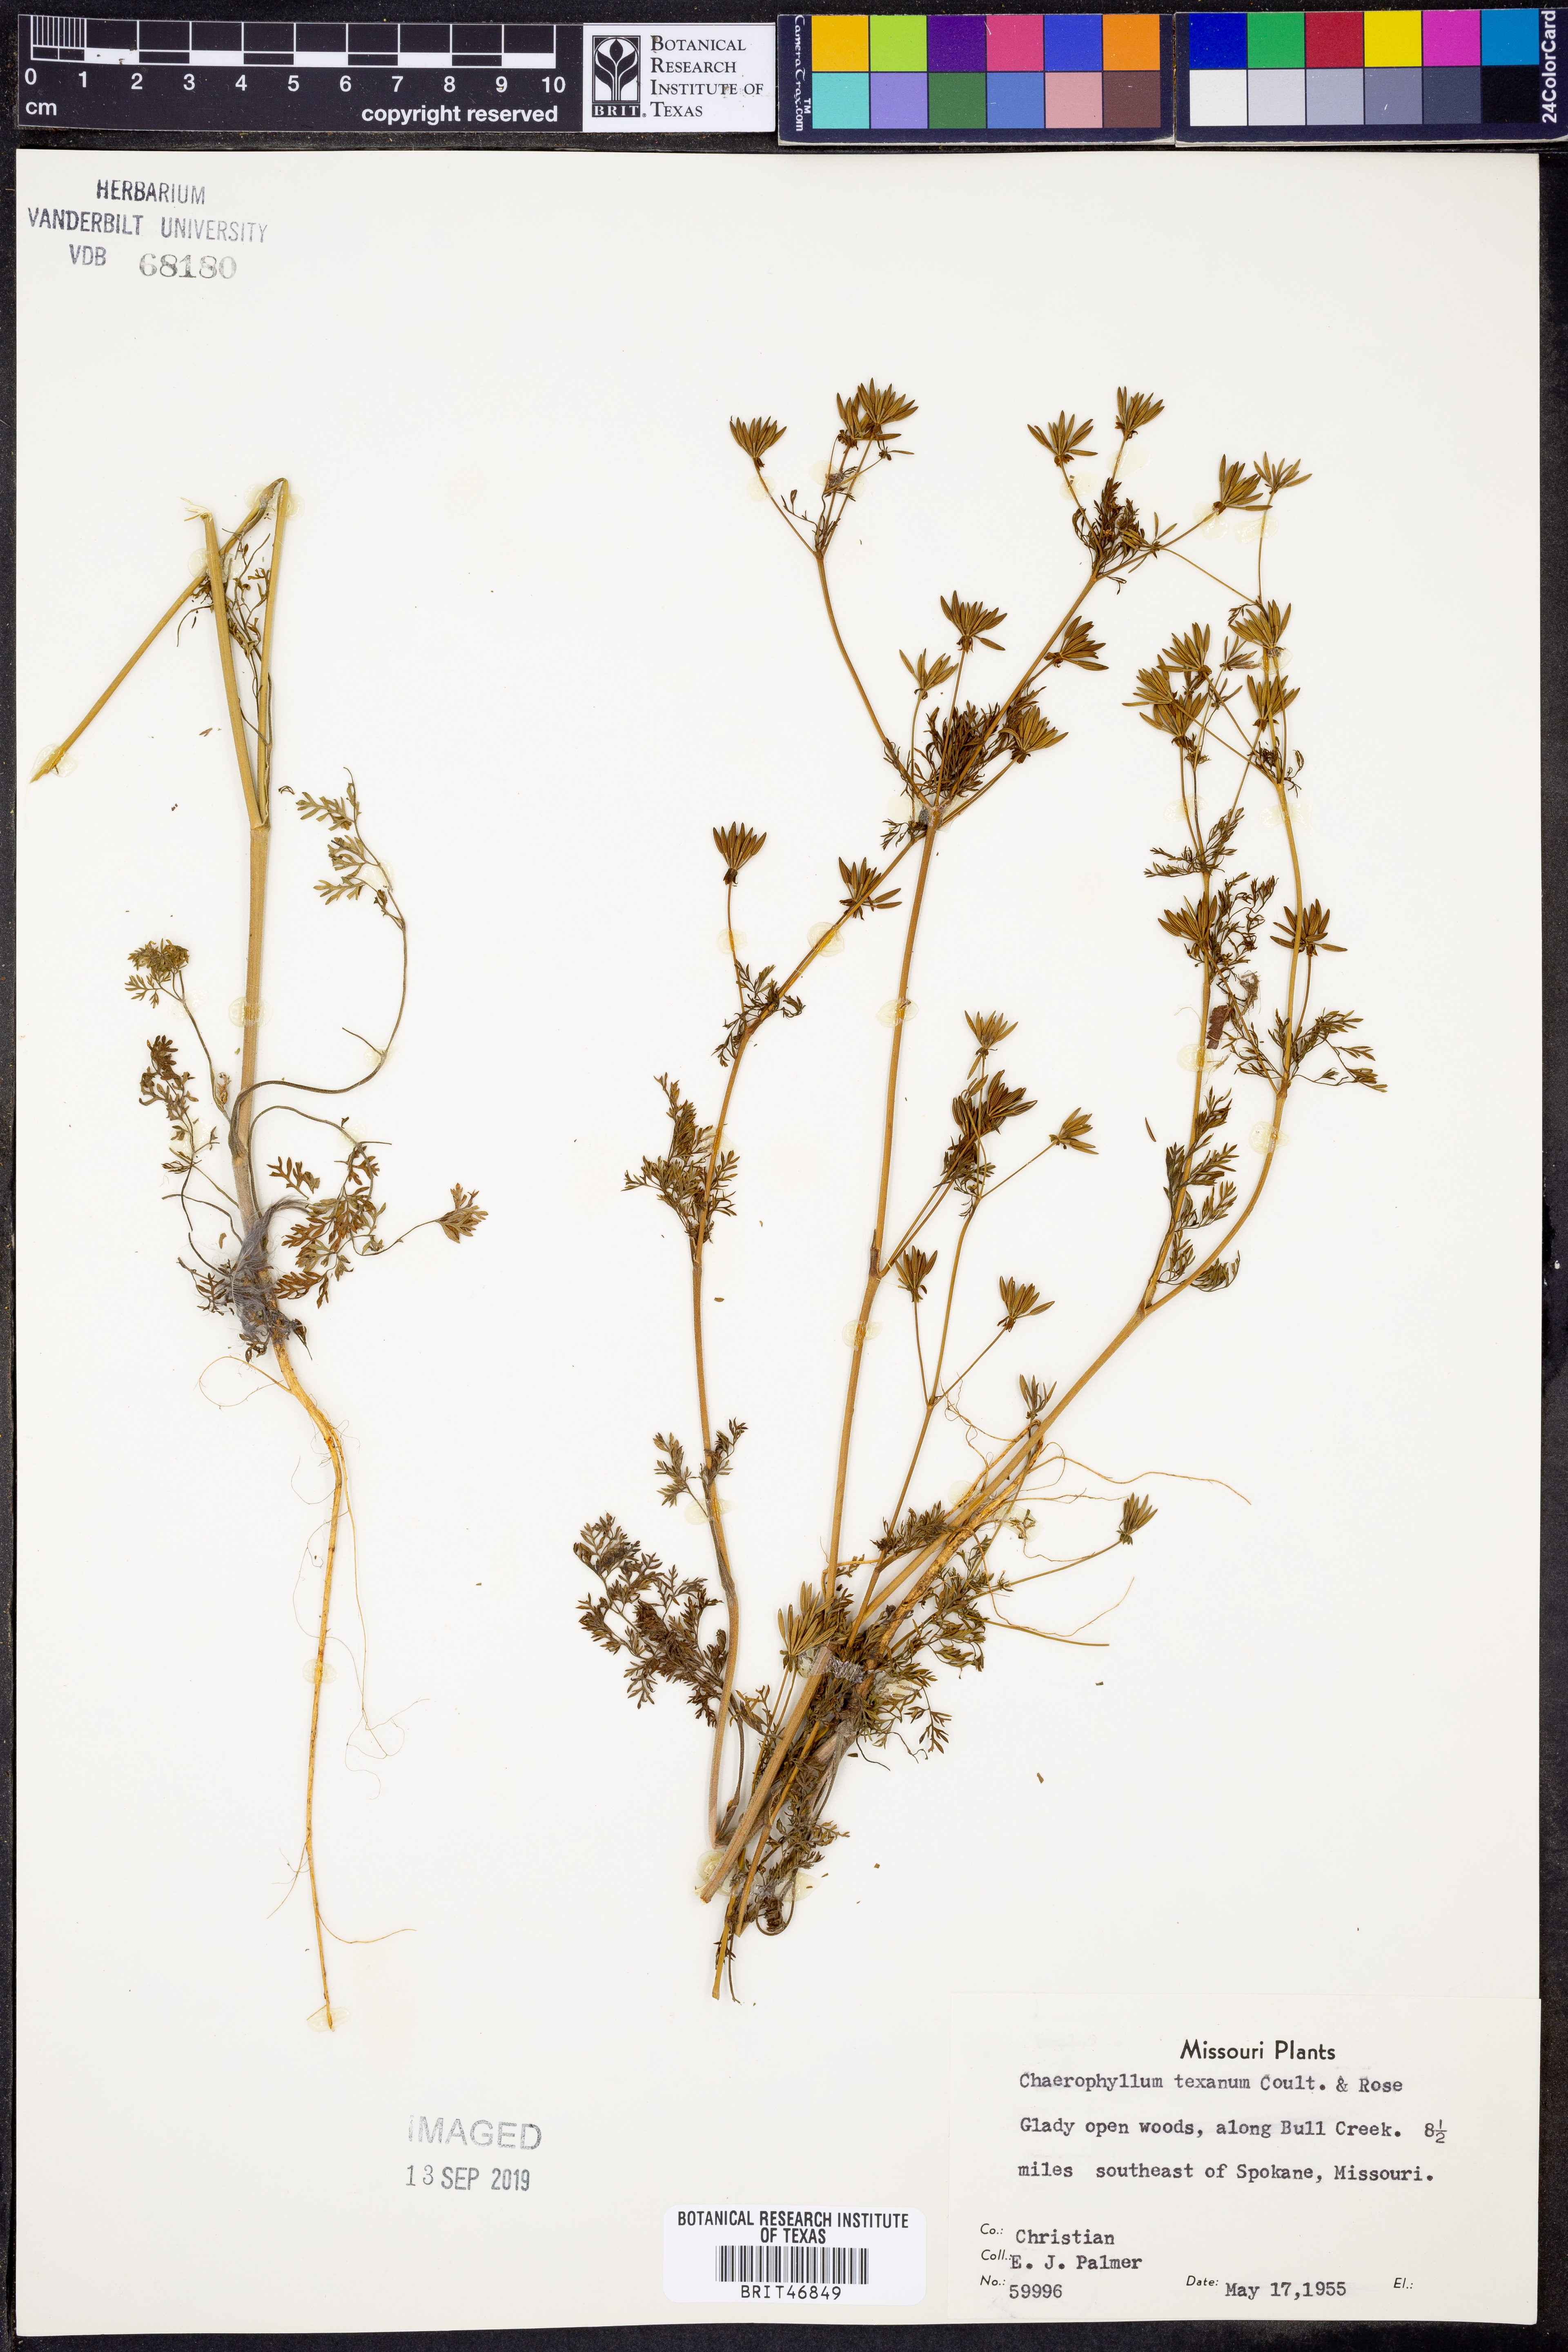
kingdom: Plantae
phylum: Tracheophyta
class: Magnoliopsida
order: Apiales
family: Apiaceae
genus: Chaerophyllum
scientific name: Chaerophyllum tainturieri
